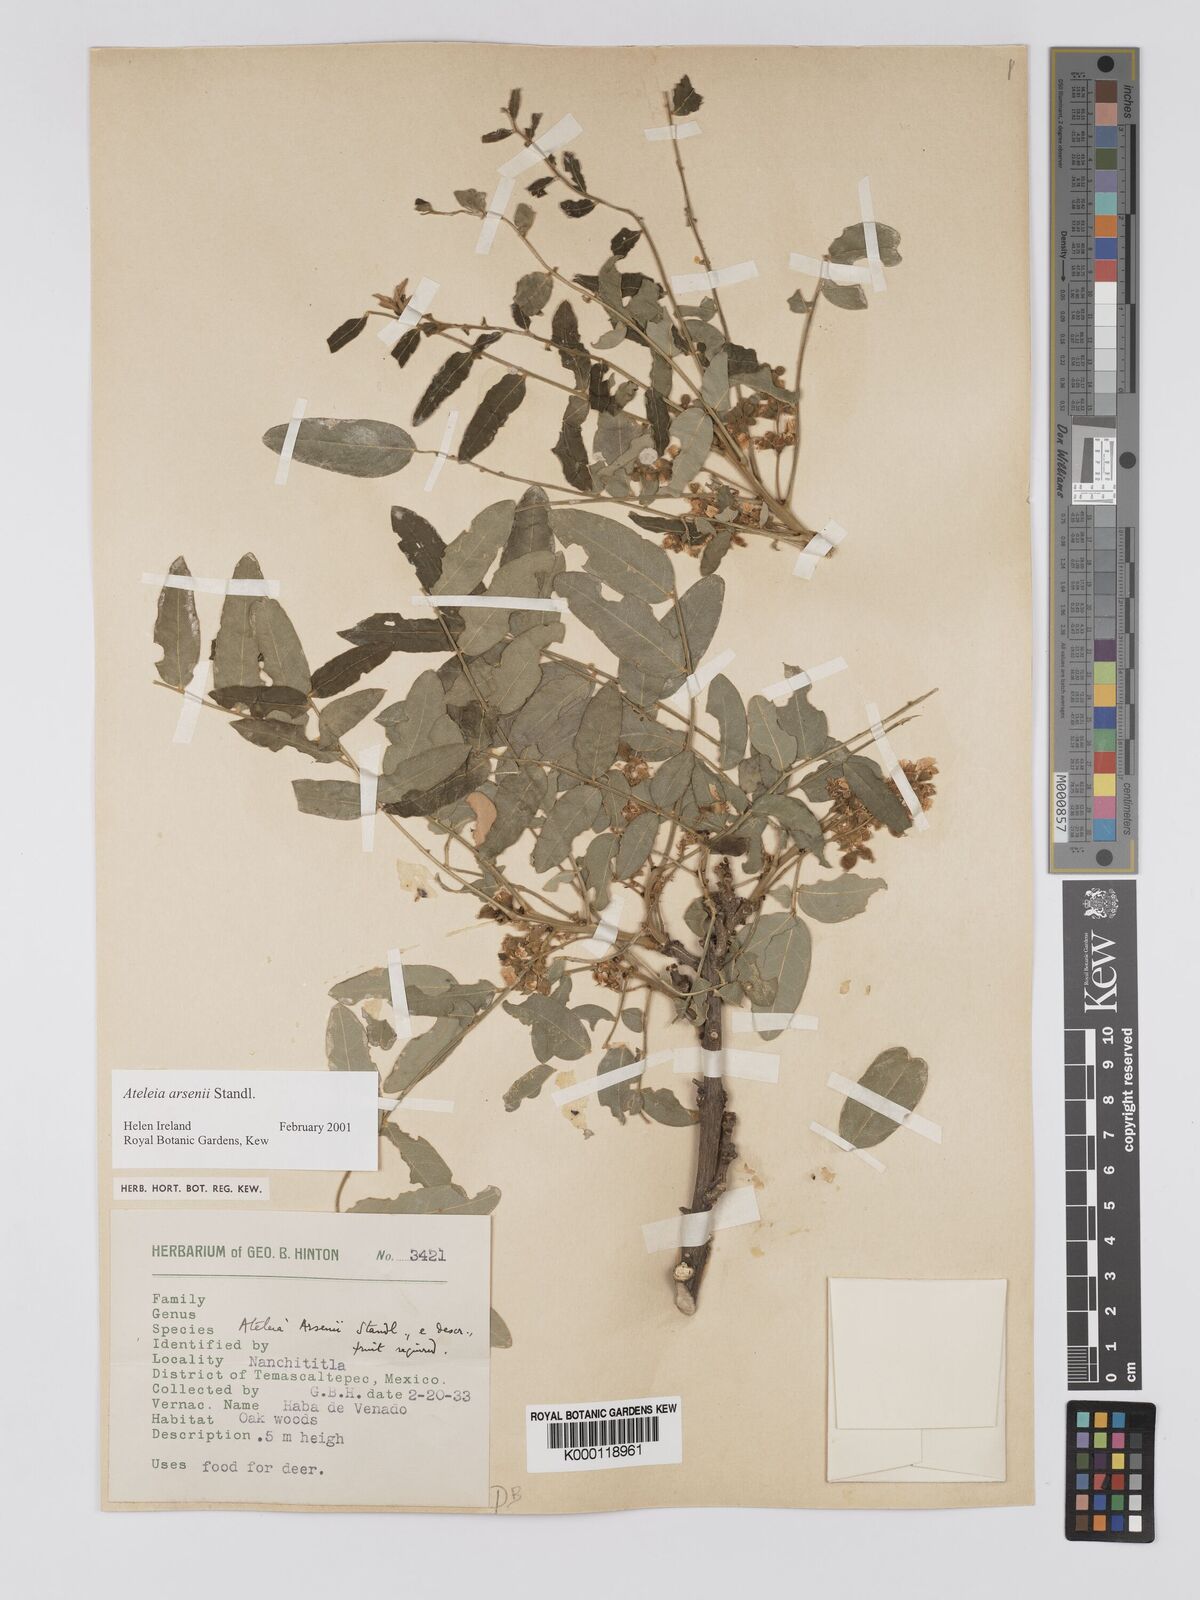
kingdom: Plantae
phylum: Tracheophyta
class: Magnoliopsida
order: Fabales
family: Fabaceae
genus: Ateleia
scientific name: Ateleia arsenii
